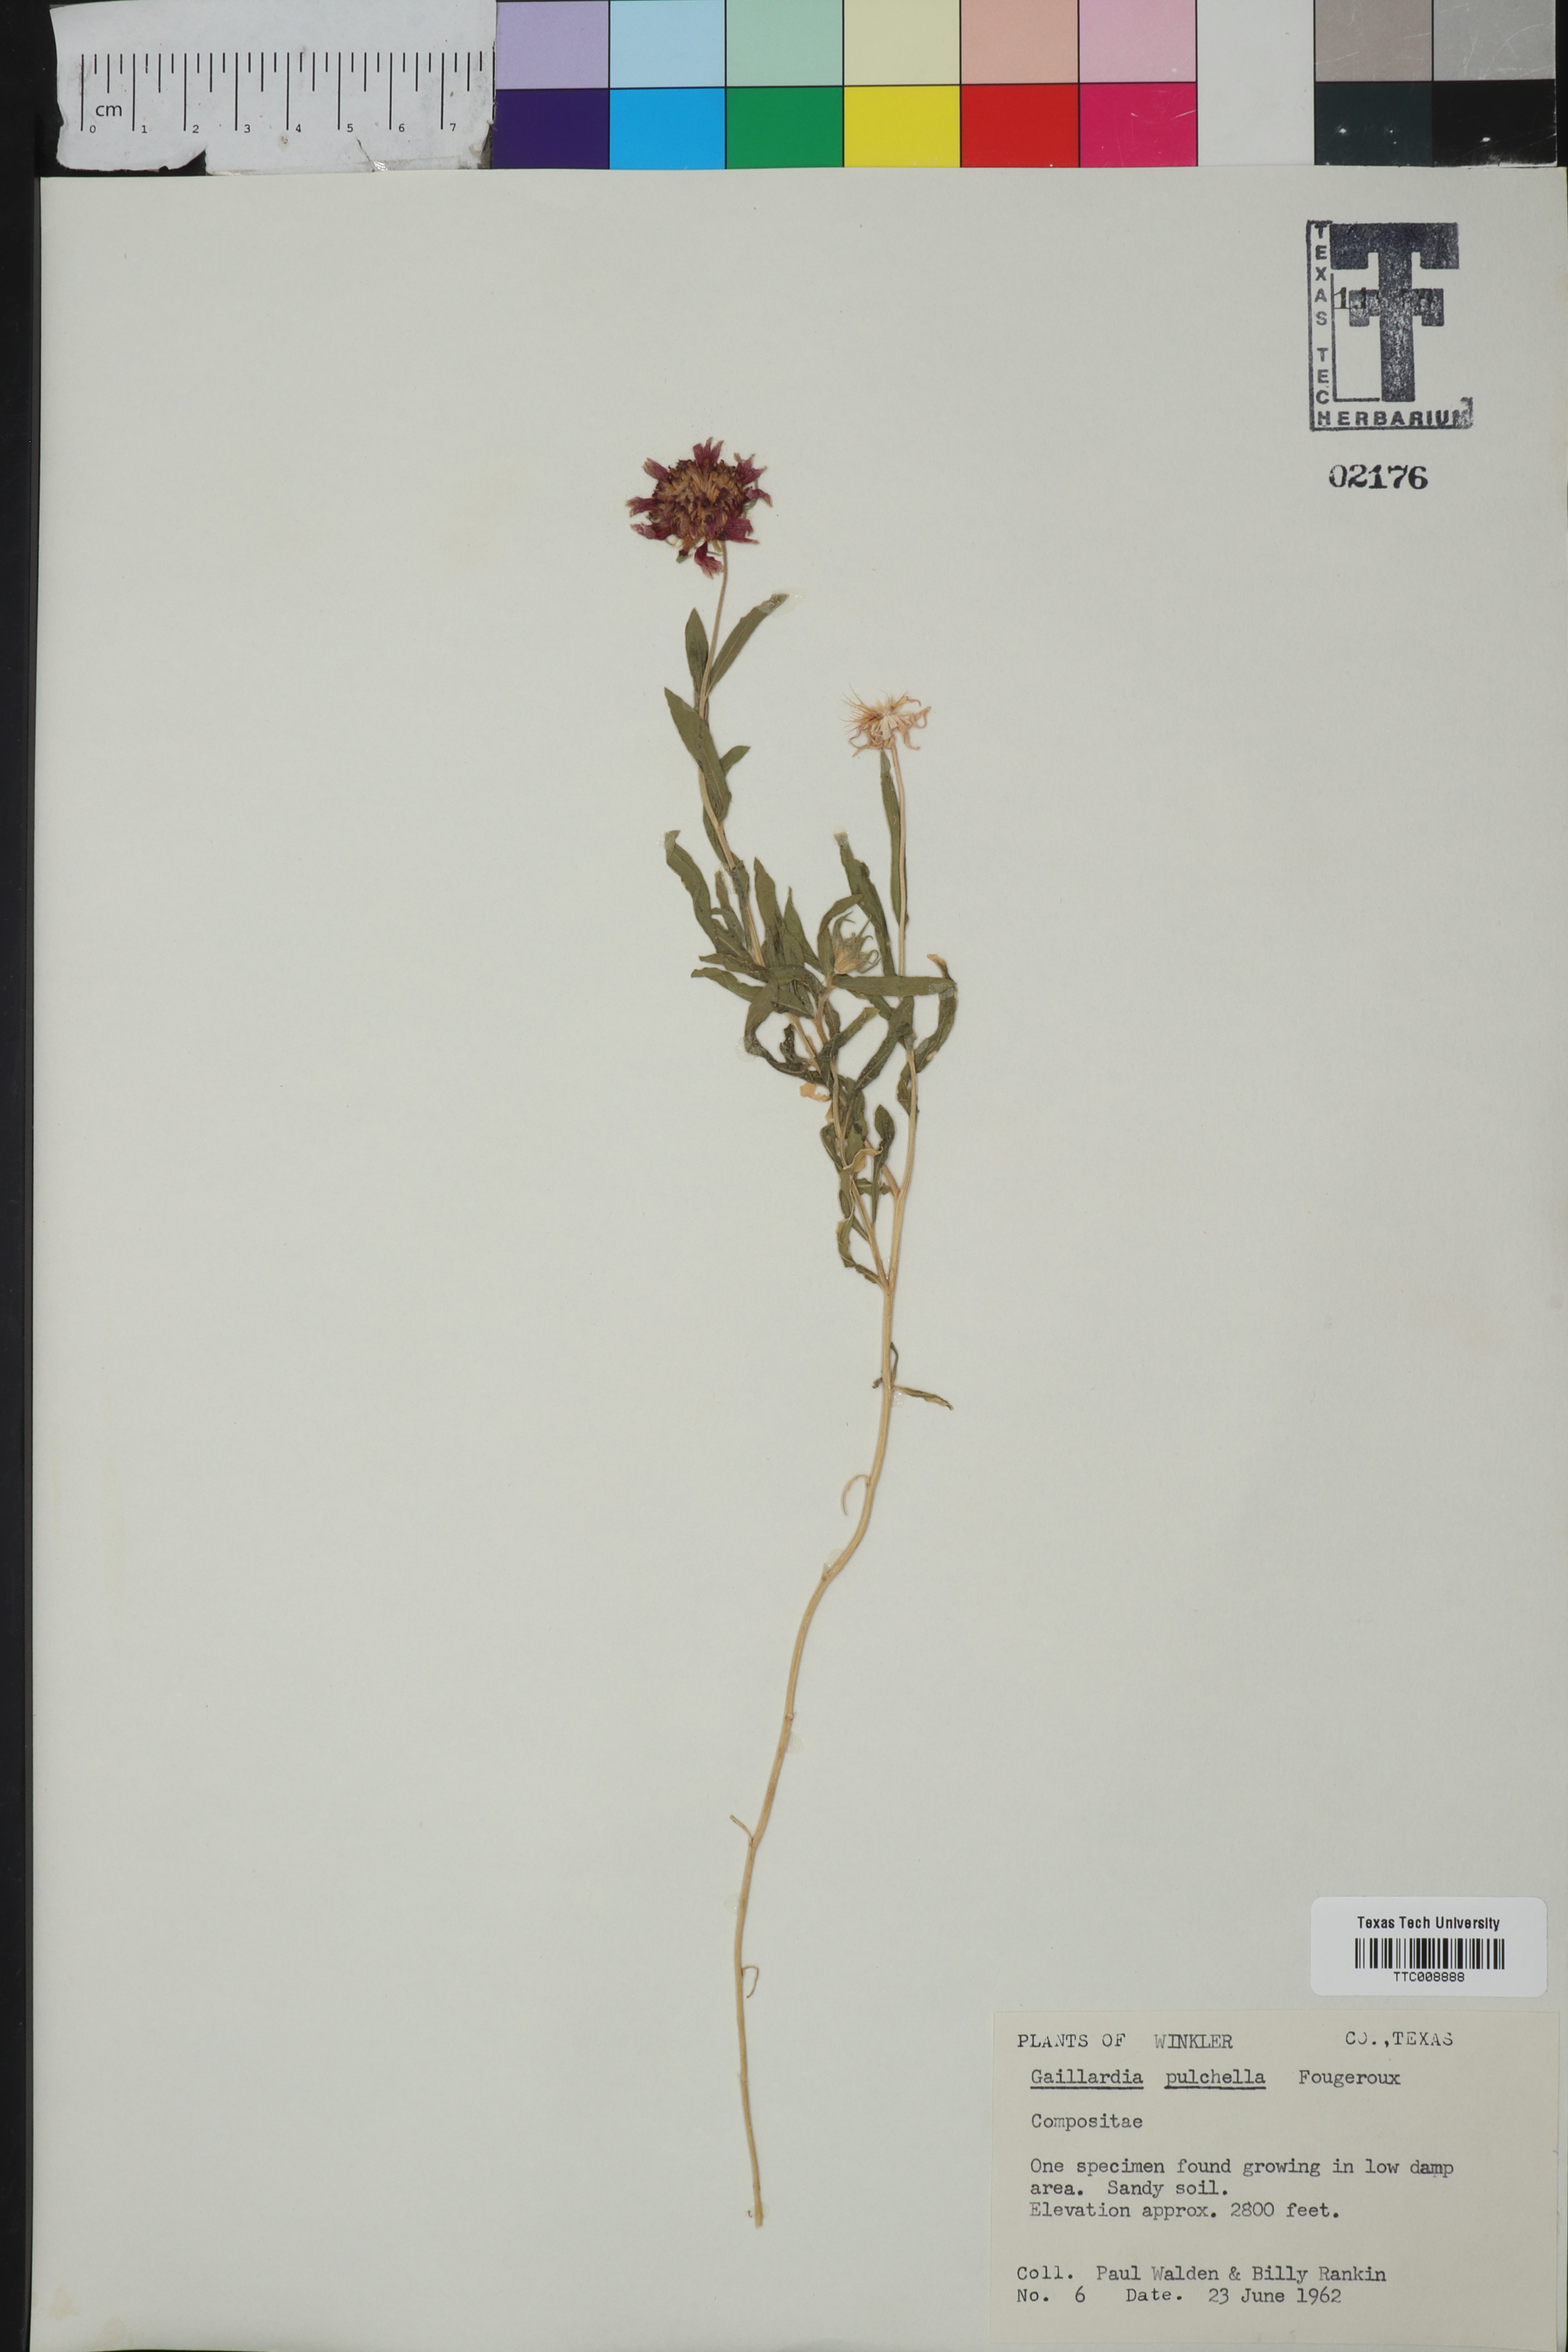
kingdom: Plantae
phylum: Tracheophyta
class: Magnoliopsida
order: Asterales
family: Asteraceae
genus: Gaillardia
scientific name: Gaillardia pulchella
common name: Firewheel
